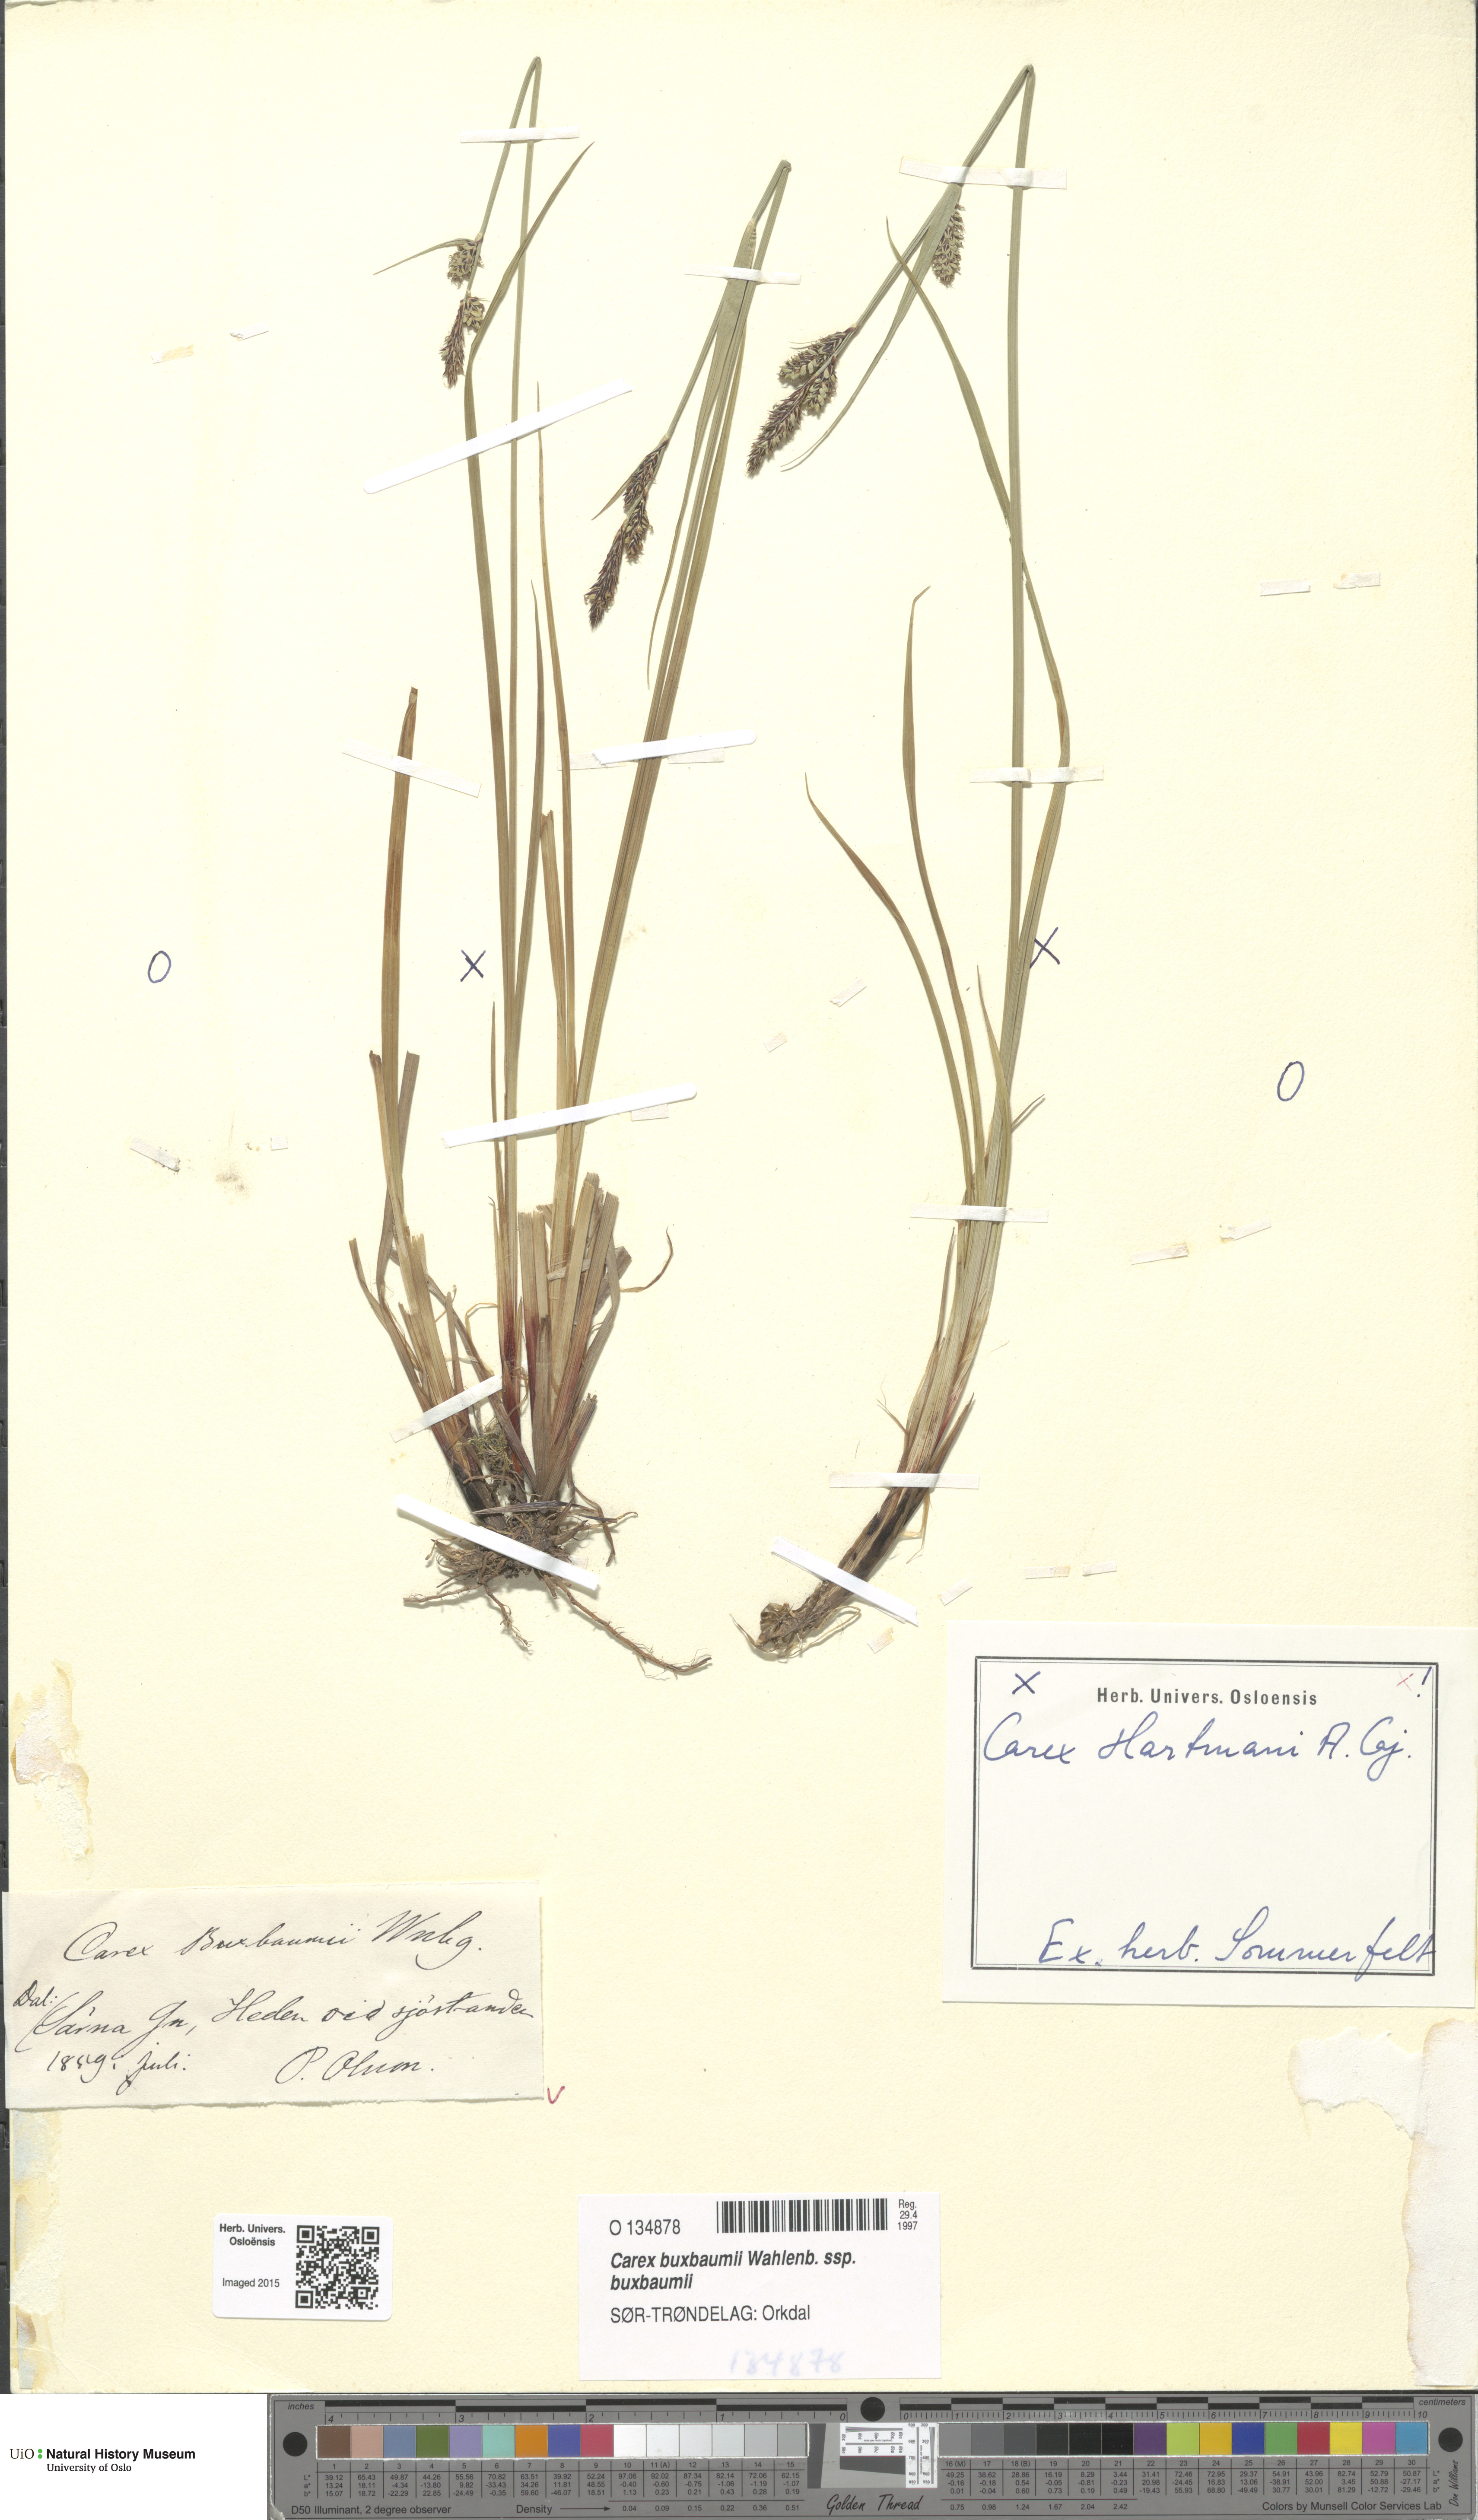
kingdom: Plantae
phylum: Tracheophyta
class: Liliopsida
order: Poales
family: Cyperaceae
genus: Carex
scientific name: Carex buxbaumii
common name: Club sedge
